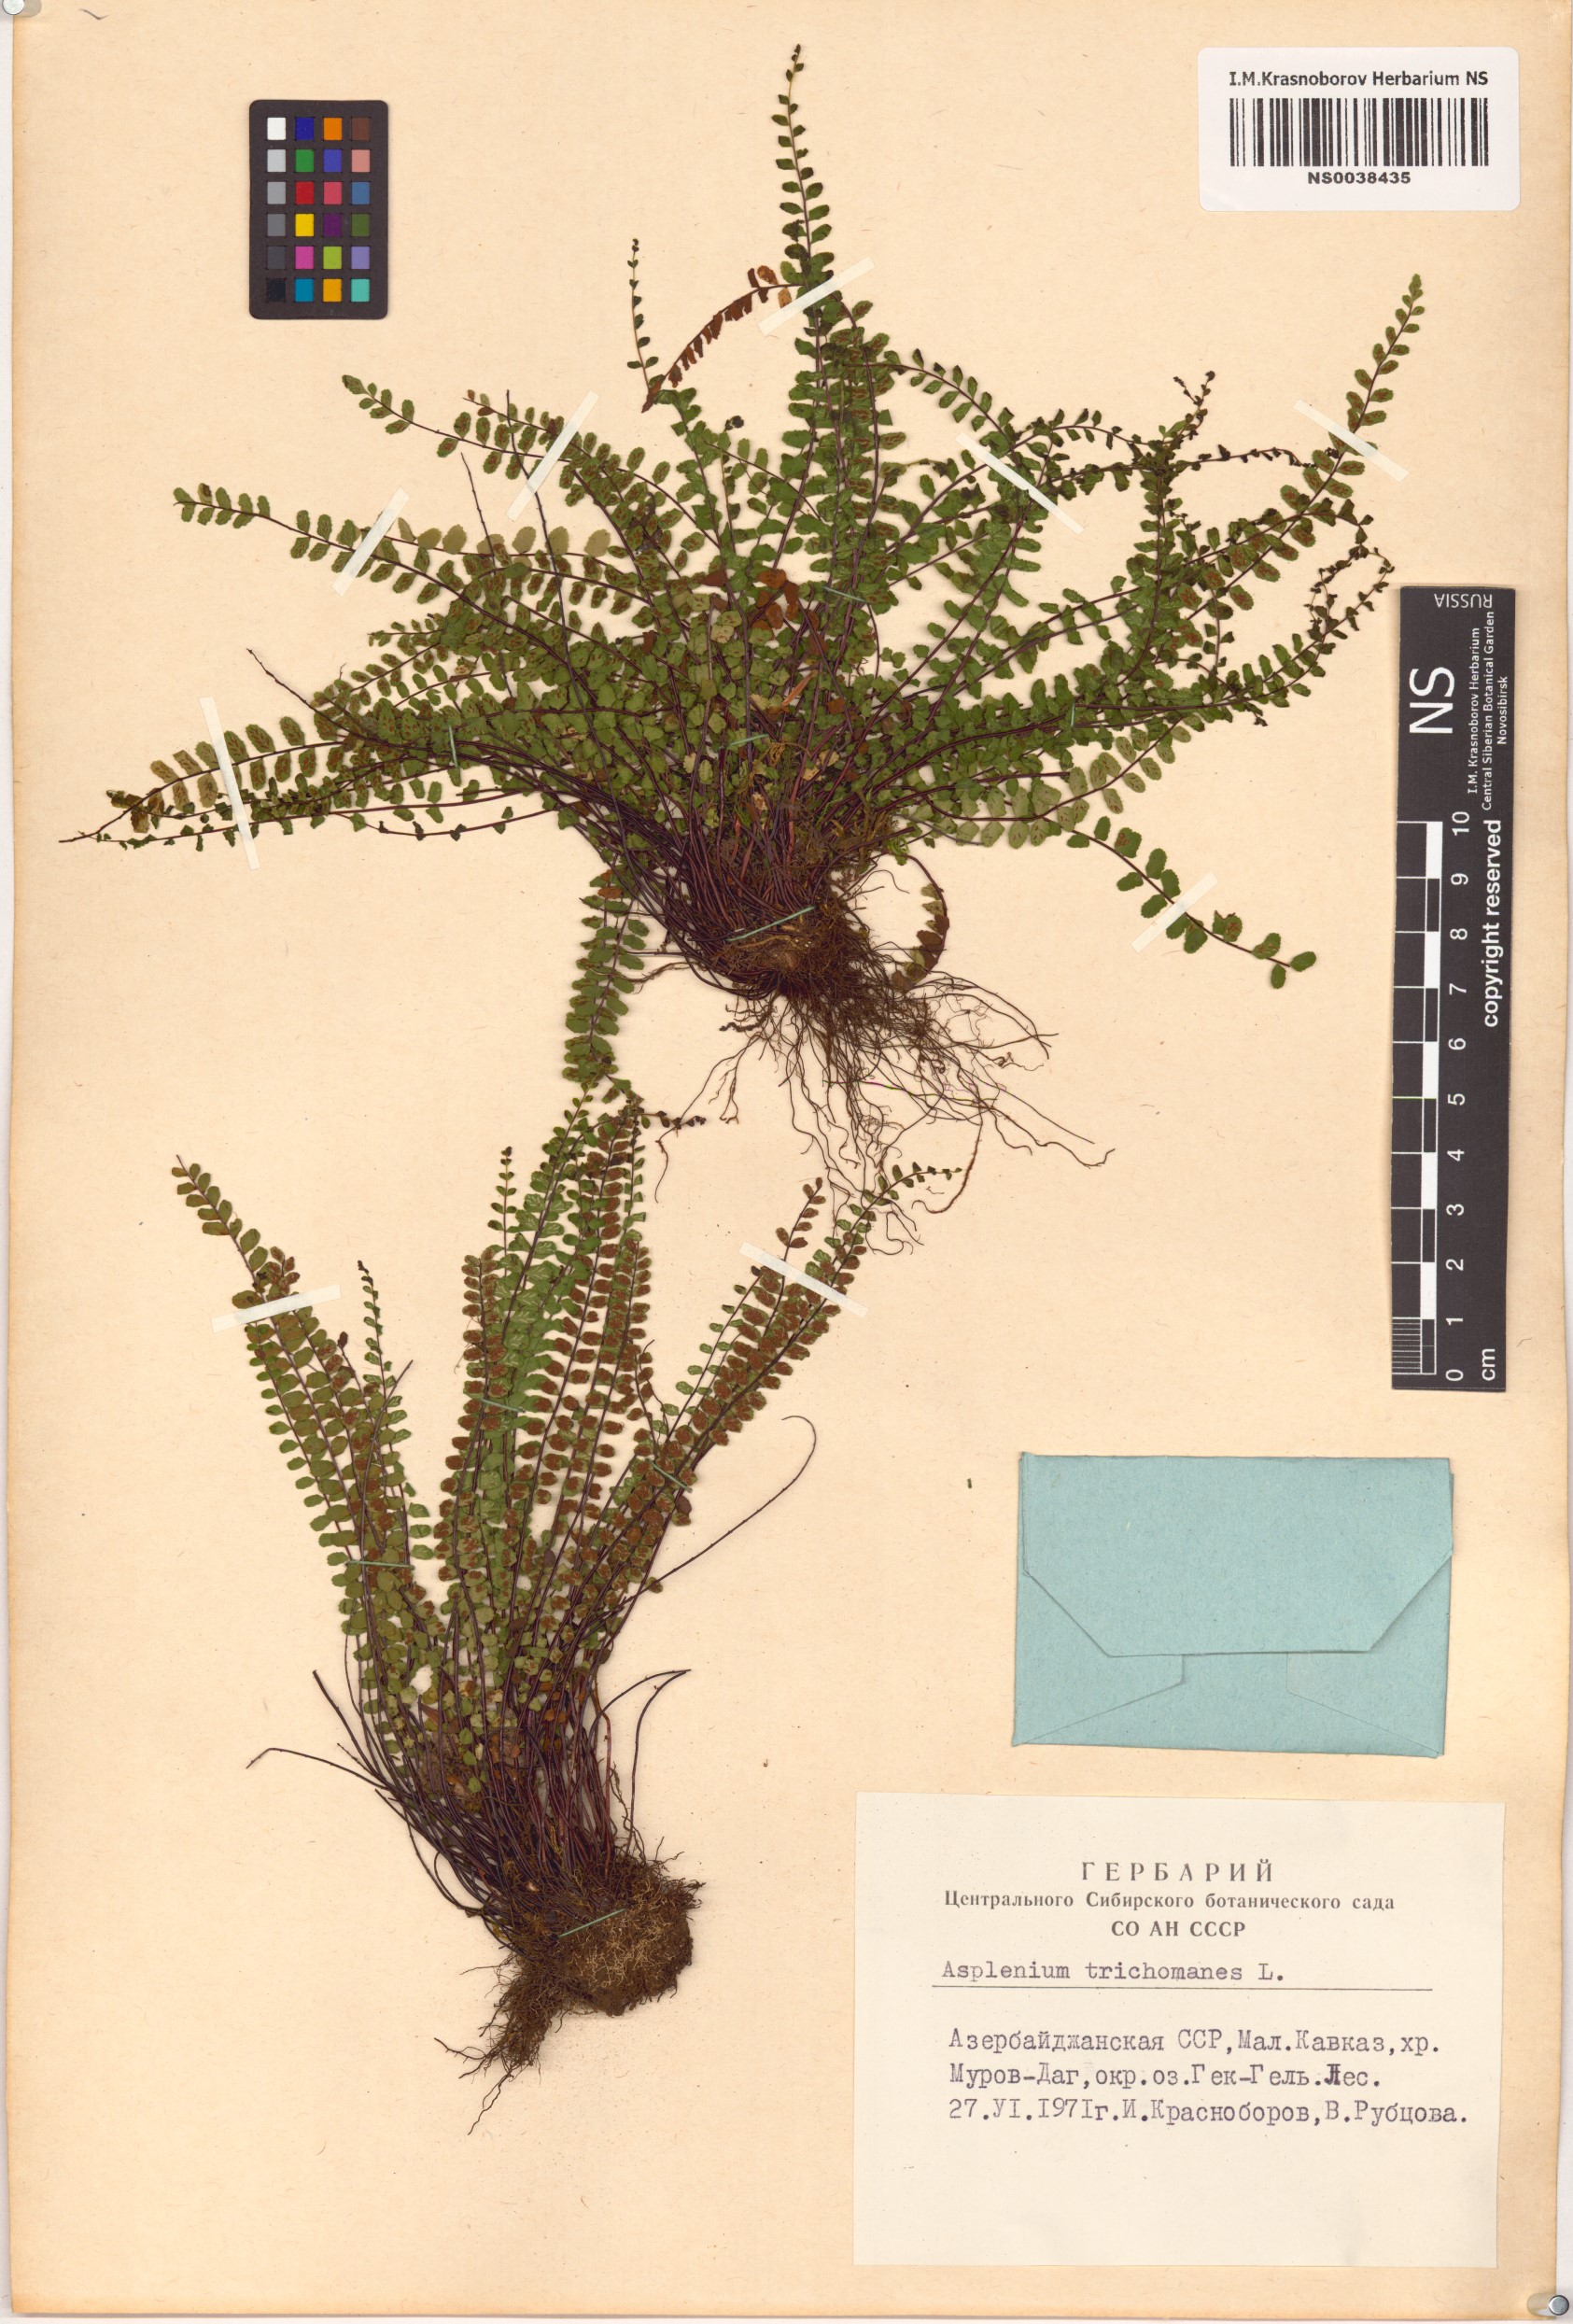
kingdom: Plantae
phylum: Tracheophyta
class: Polypodiopsida
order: Polypodiales
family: Aspleniaceae
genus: Asplenium
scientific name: Asplenium trichomanes
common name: Maidenhair spleenwort
